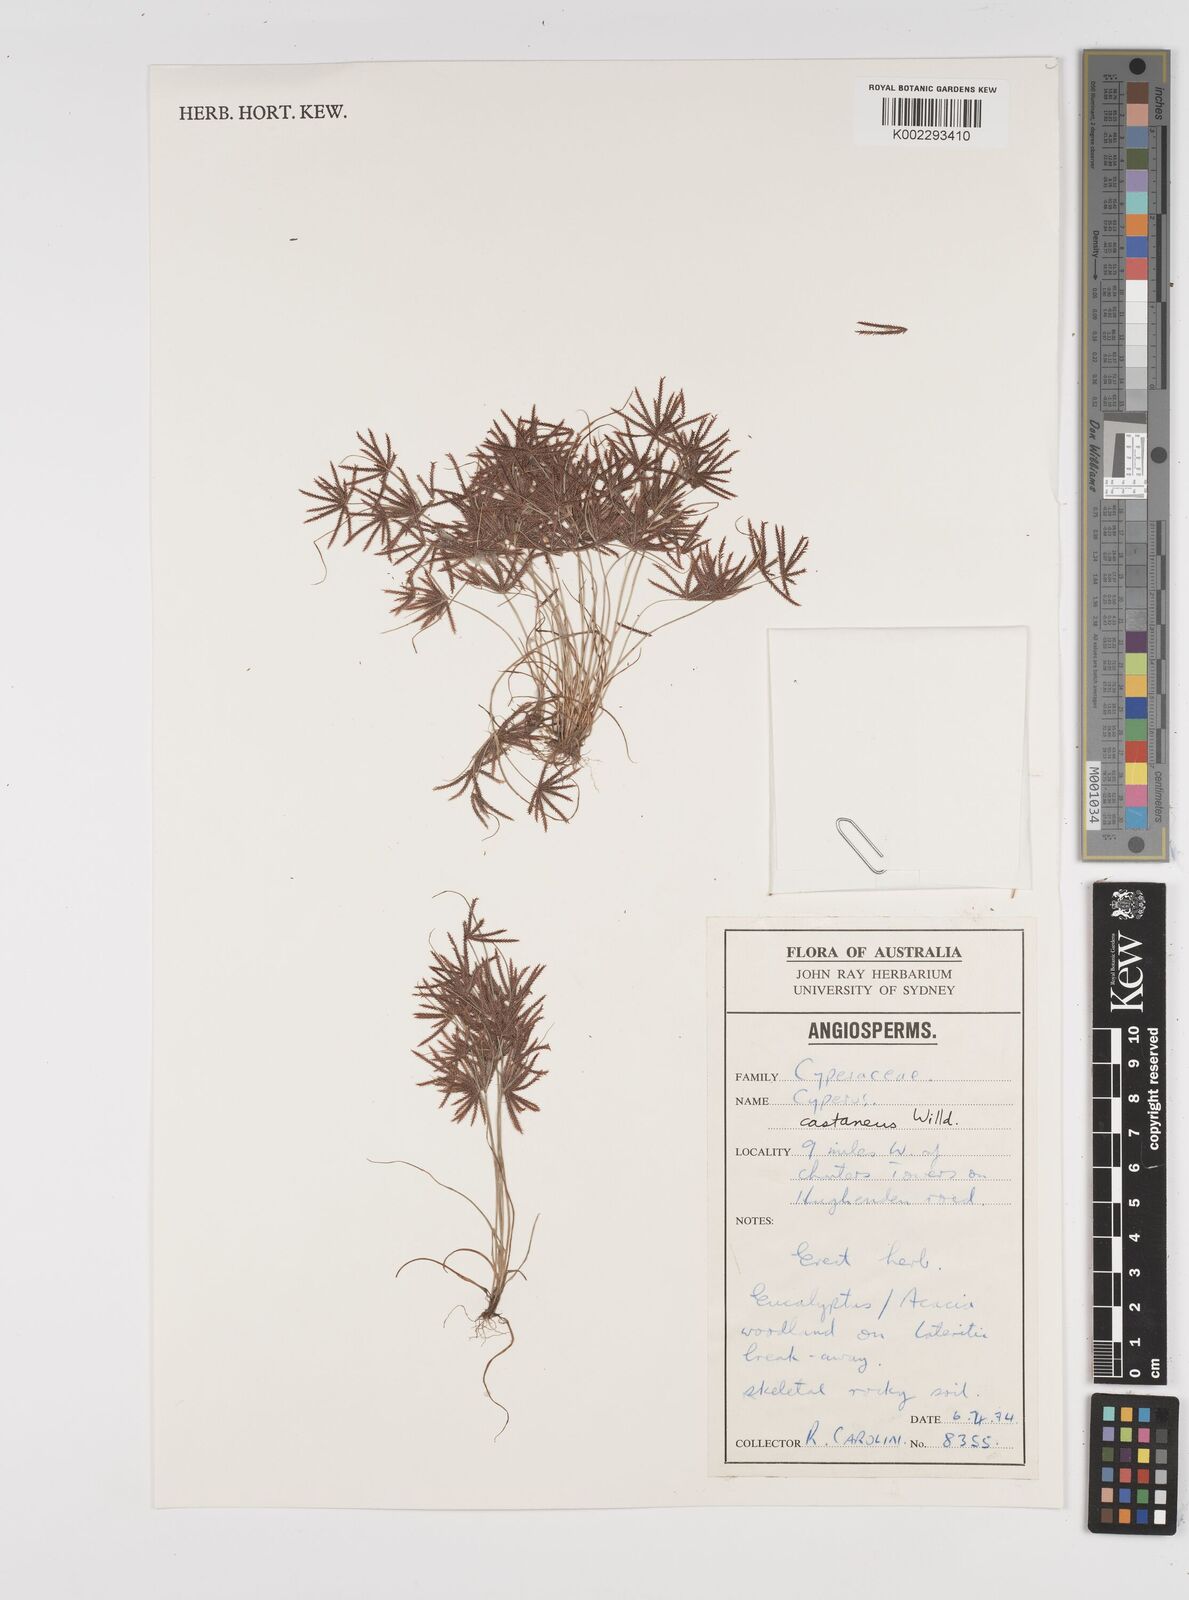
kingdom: Plantae
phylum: Tracheophyta
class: Liliopsida
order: Poales
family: Cyperaceae
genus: Cyperus
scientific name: Cyperus castaneus
